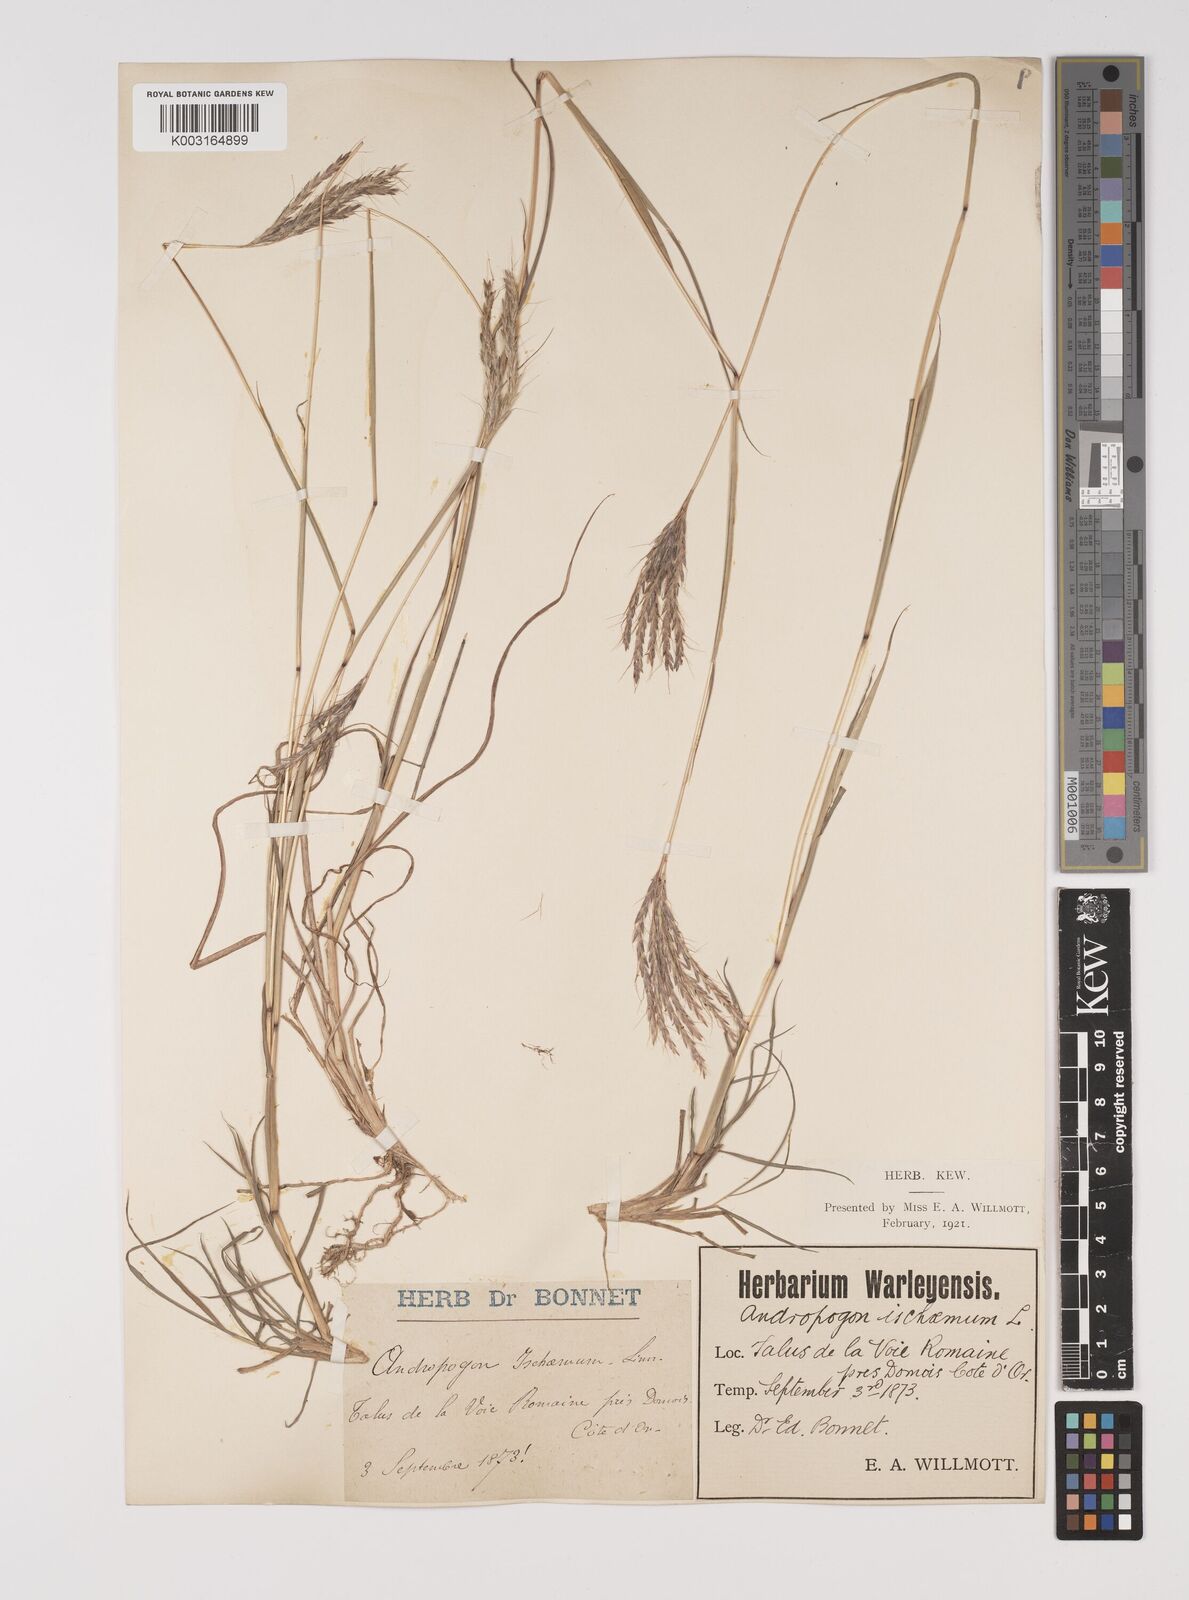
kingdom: Plantae
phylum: Tracheophyta
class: Liliopsida
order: Poales
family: Poaceae
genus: Bothriochloa
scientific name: Bothriochloa ischaemum
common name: Yellow bluestem
